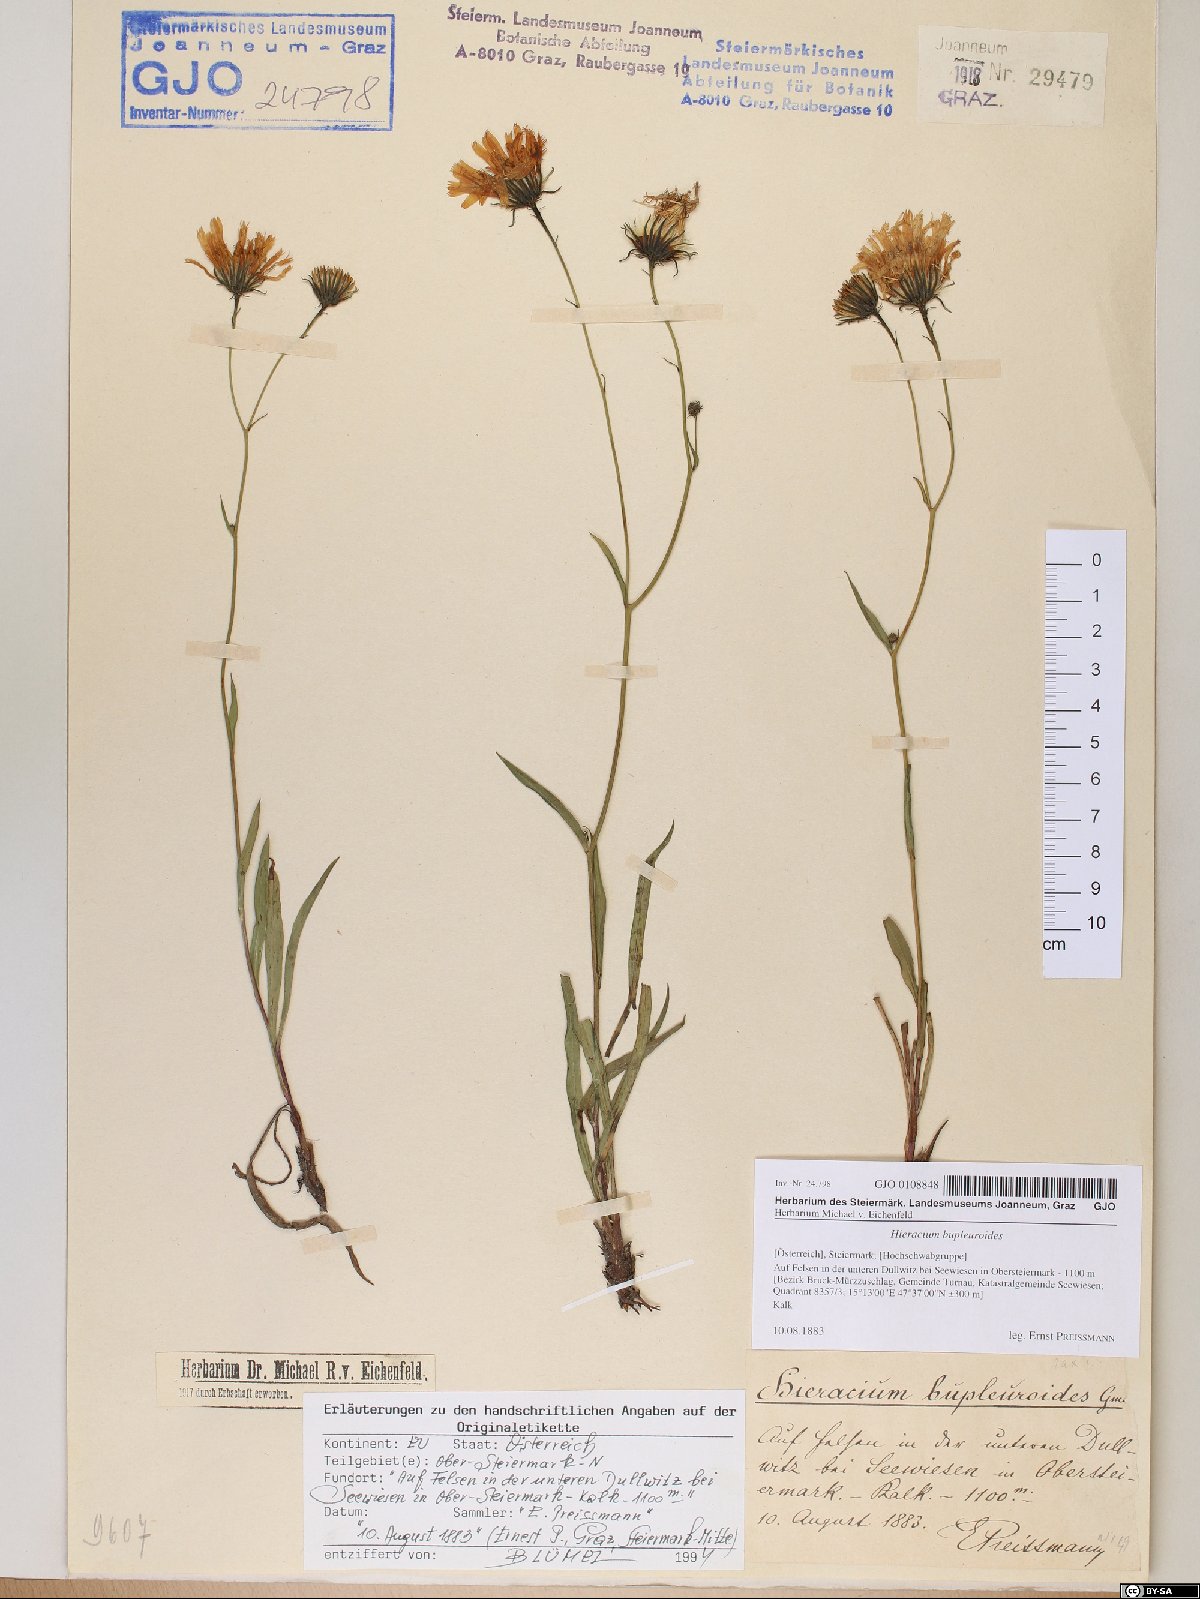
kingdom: Plantae
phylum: Tracheophyta
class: Magnoliopsida
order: Asterales
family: Asteraceae
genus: Hieracium
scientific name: Hieracium bupleuroides
